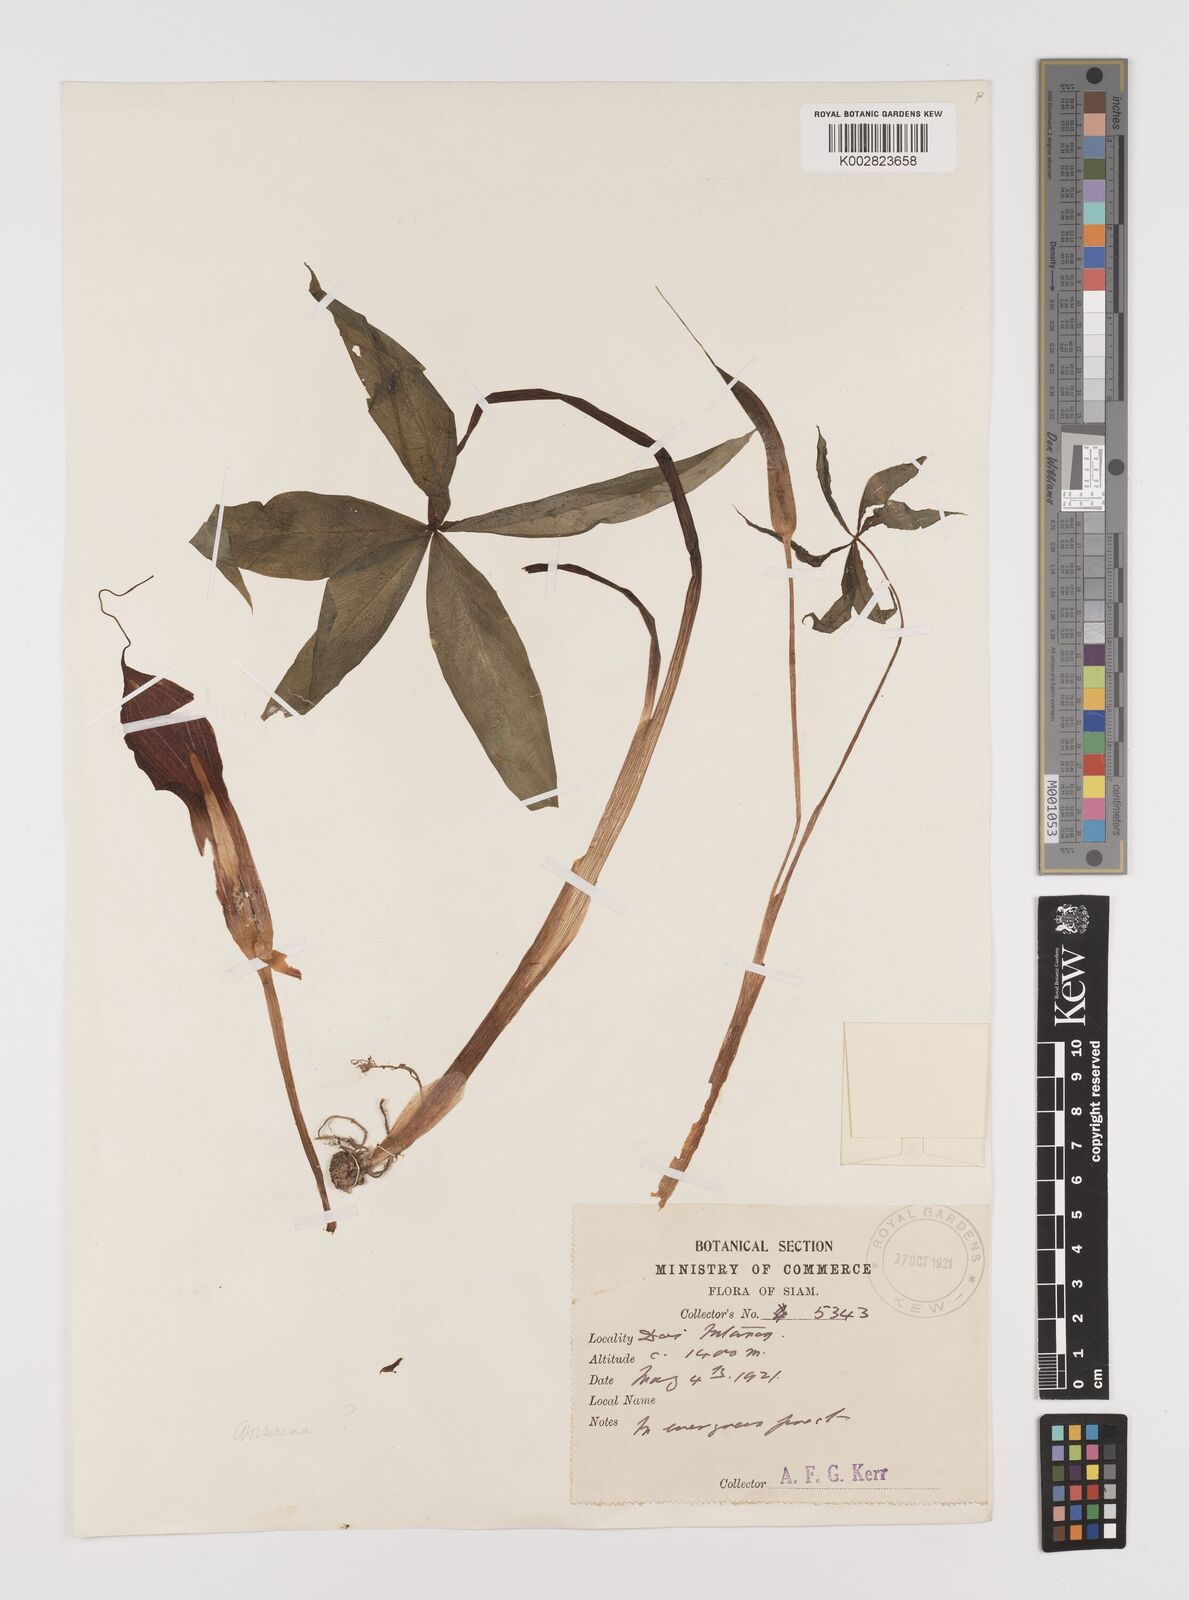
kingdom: Plantae
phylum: Tracheophyta
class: Liliopsida
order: Alismatales
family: Araceae
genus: Arisaema
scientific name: Arisaema
